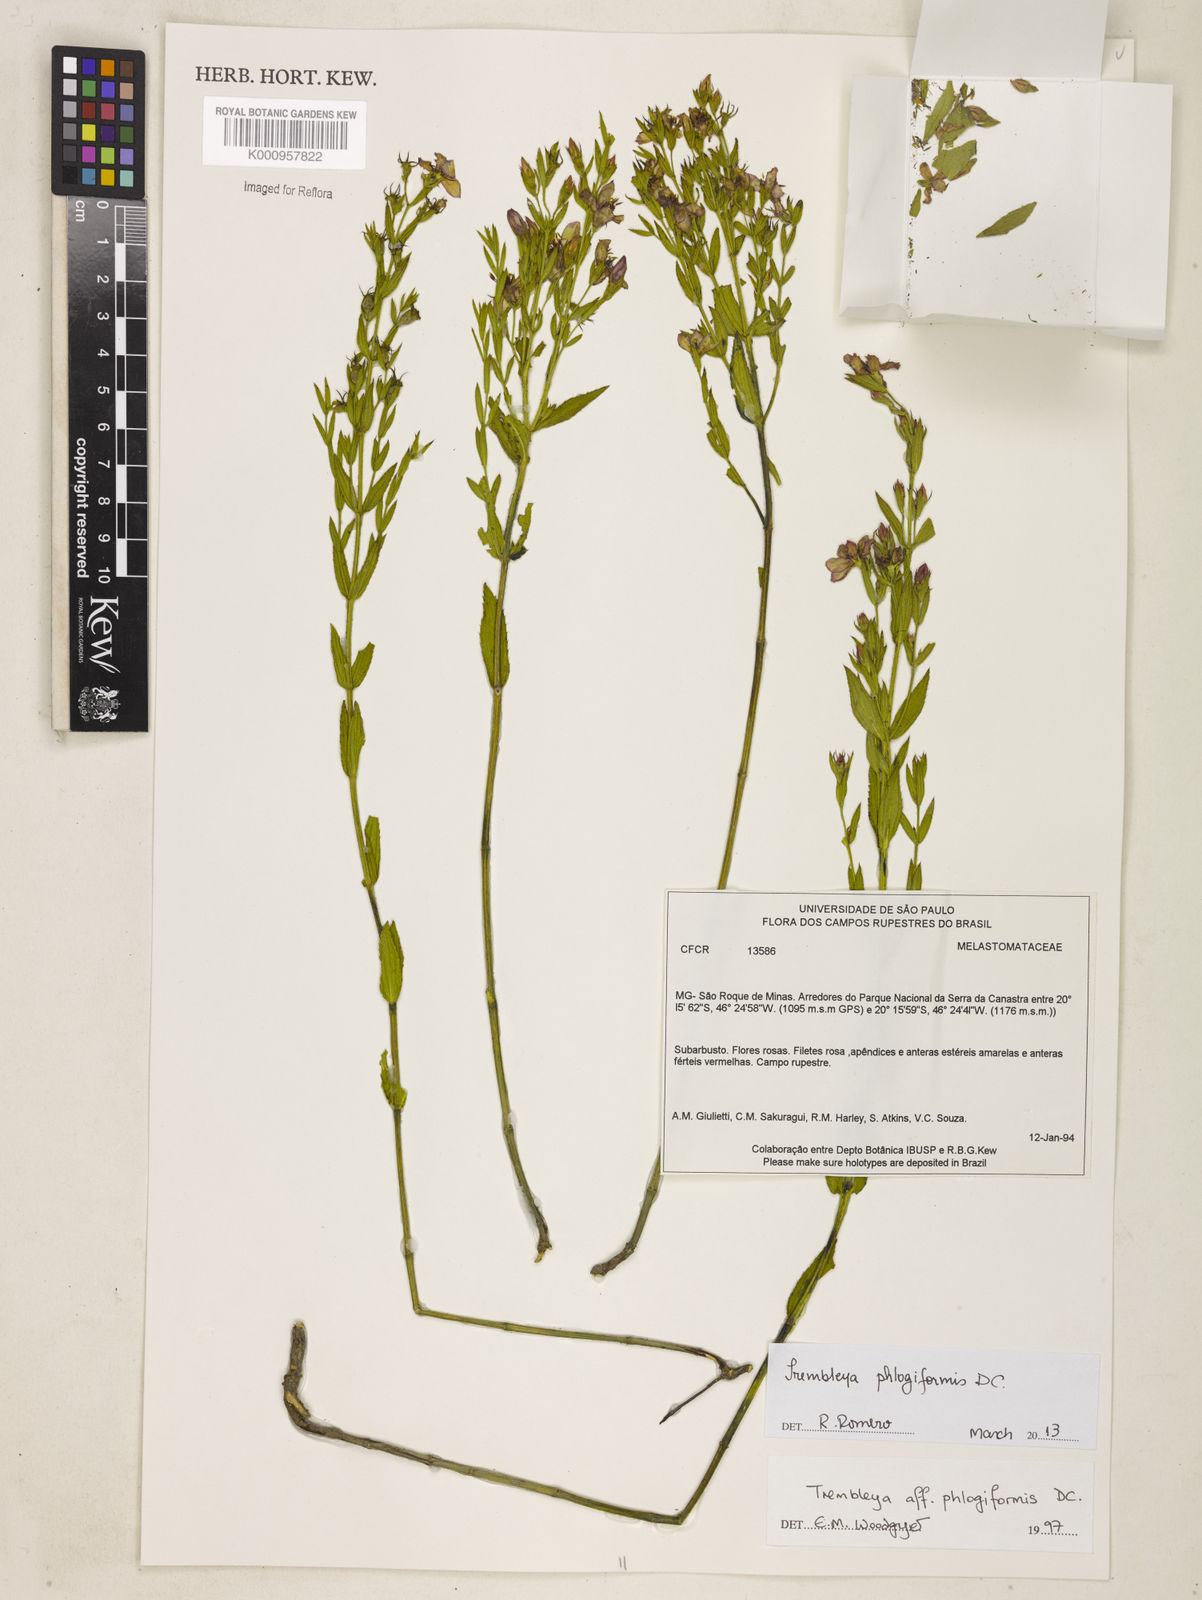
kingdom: Plantae
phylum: Tracheophyta
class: Magnoliopsida
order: Myrtales
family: Melastomataceae
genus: Microlicia
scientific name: Microlicia phlogiformis
